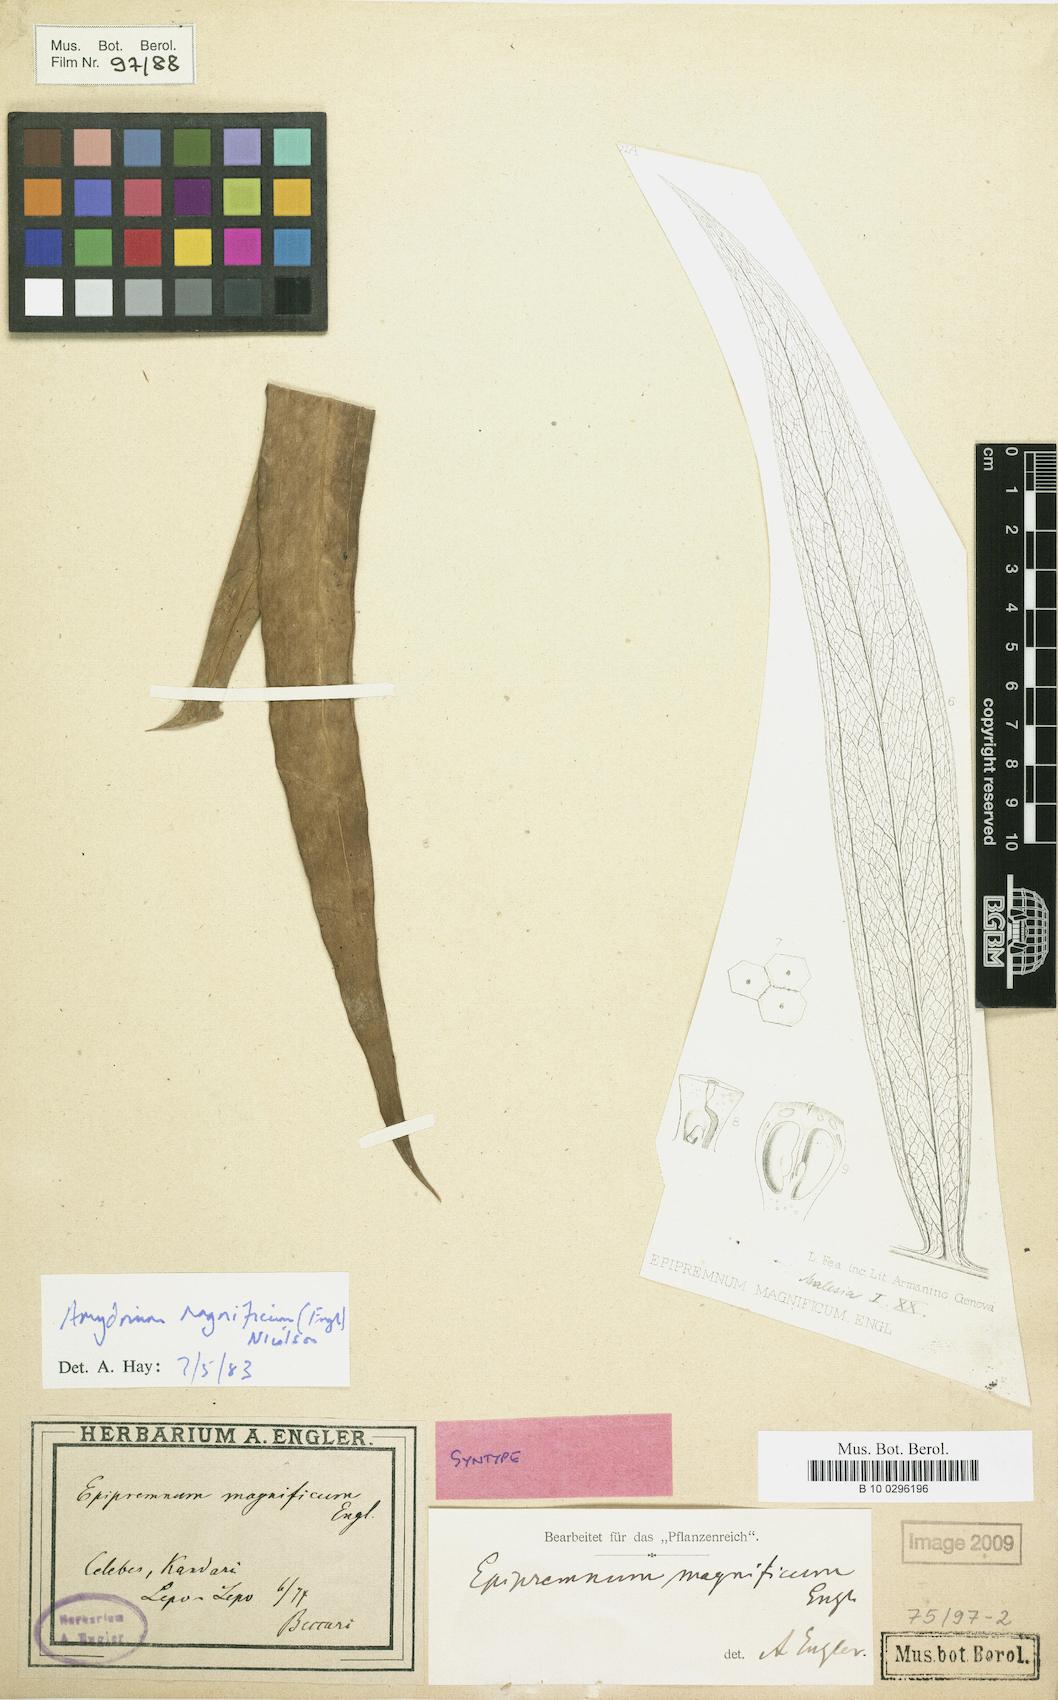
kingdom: Plantae
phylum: Tracheophyta
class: Liliopsida
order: Alismatales
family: Araceae
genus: Amydrium
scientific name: Amydrium zippelianum
